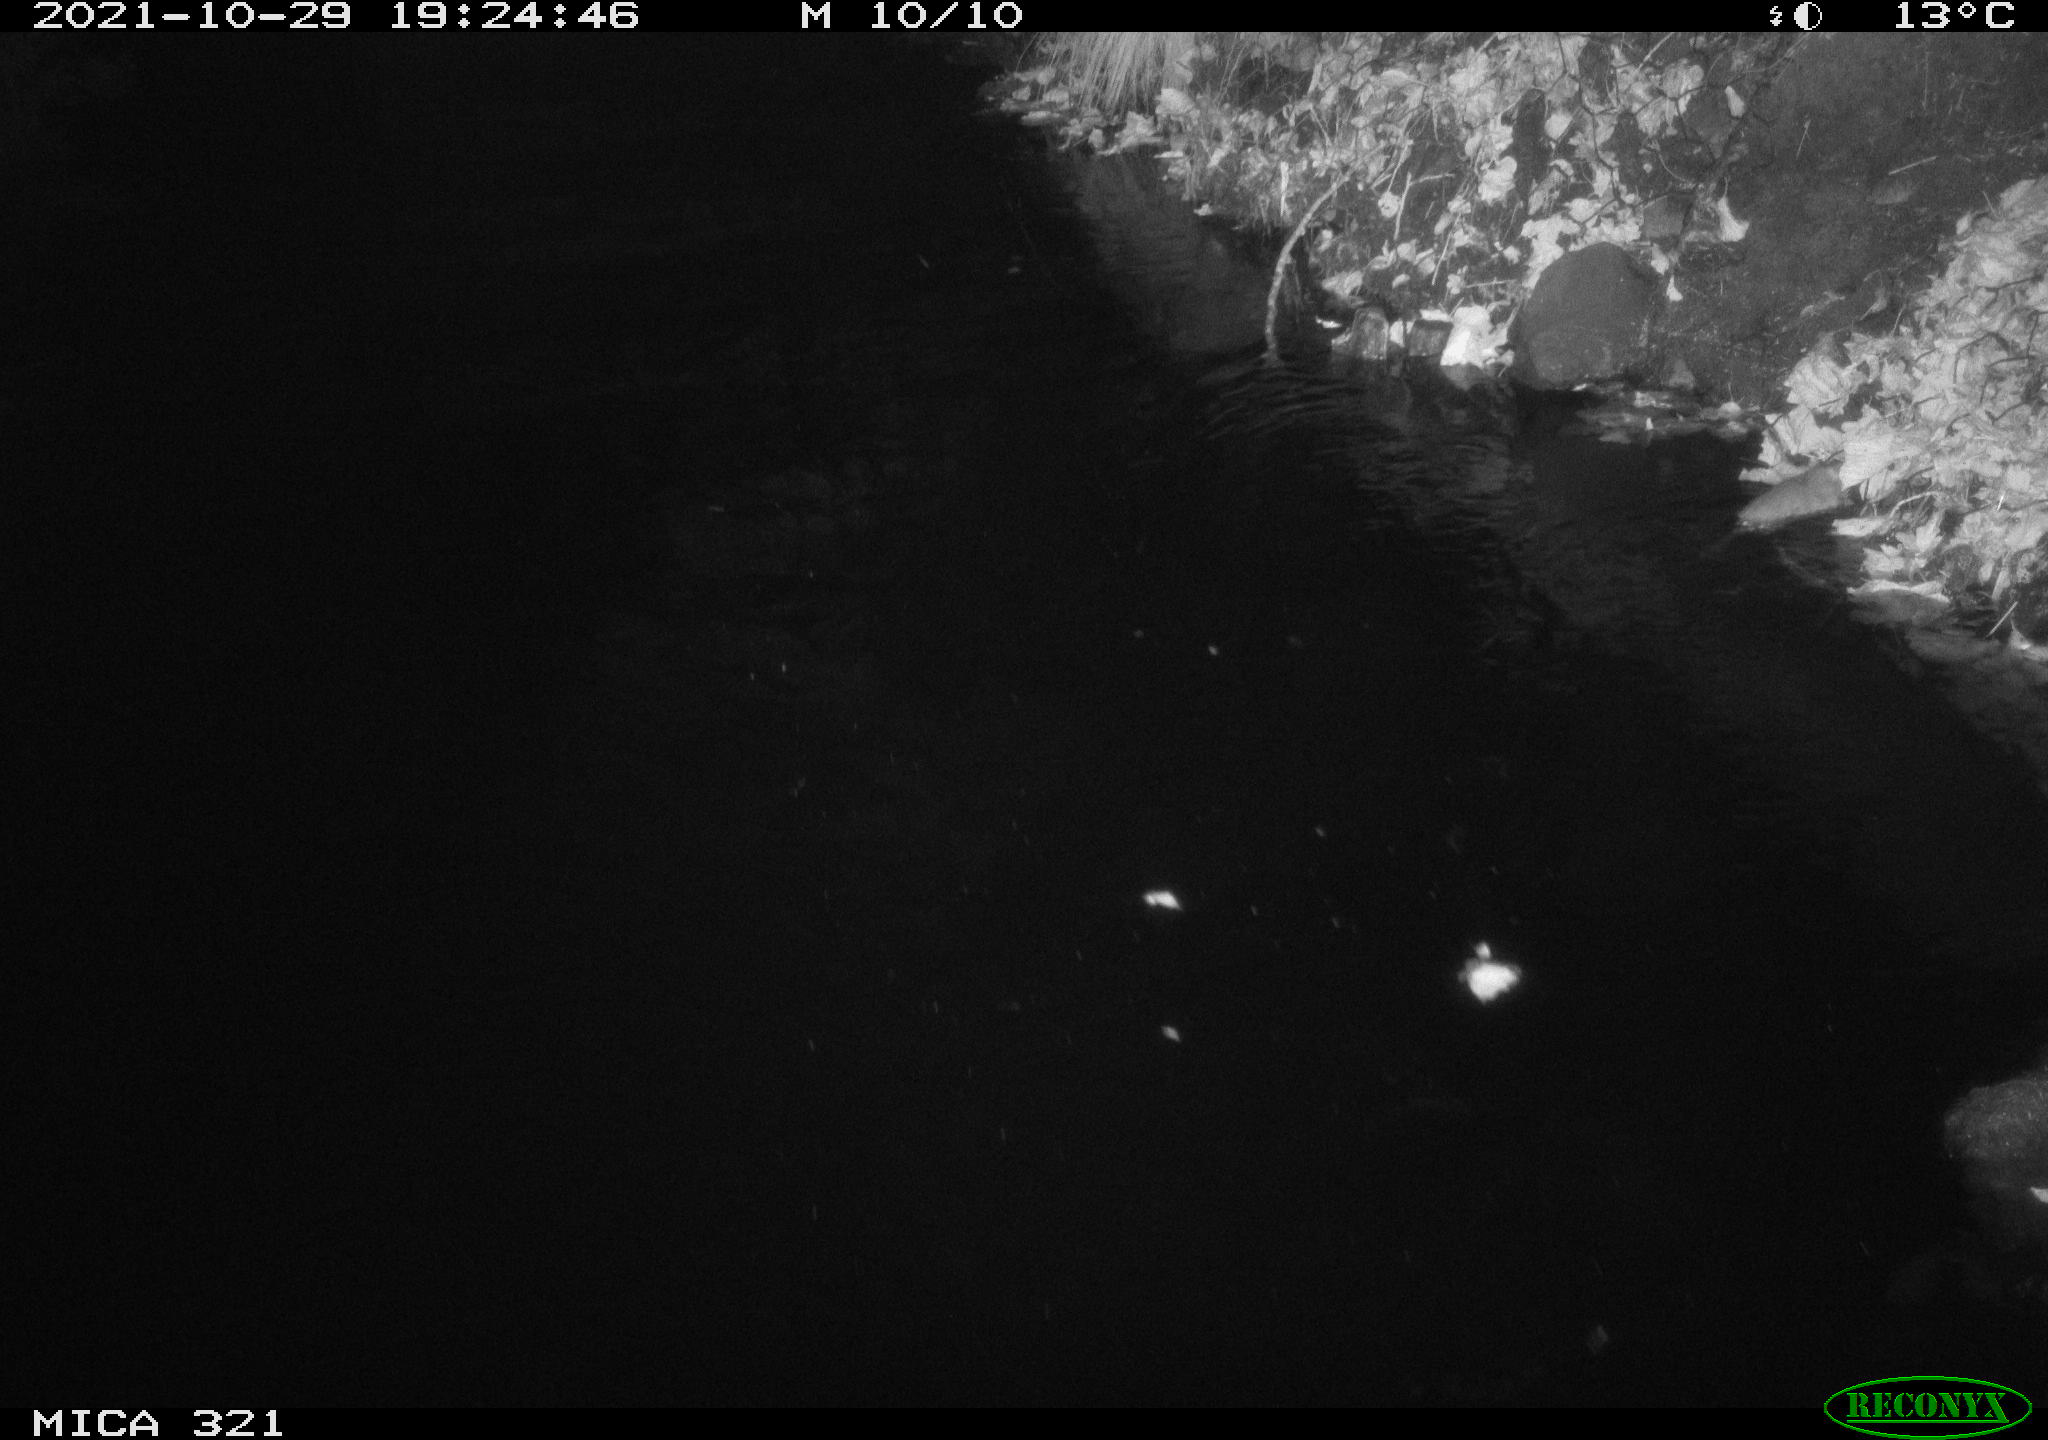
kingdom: Animalia
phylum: Chordata
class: Mammalia
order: Rodentia
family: Muridae
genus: Rattus
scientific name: Rattus norvegicus
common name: Brown rat
